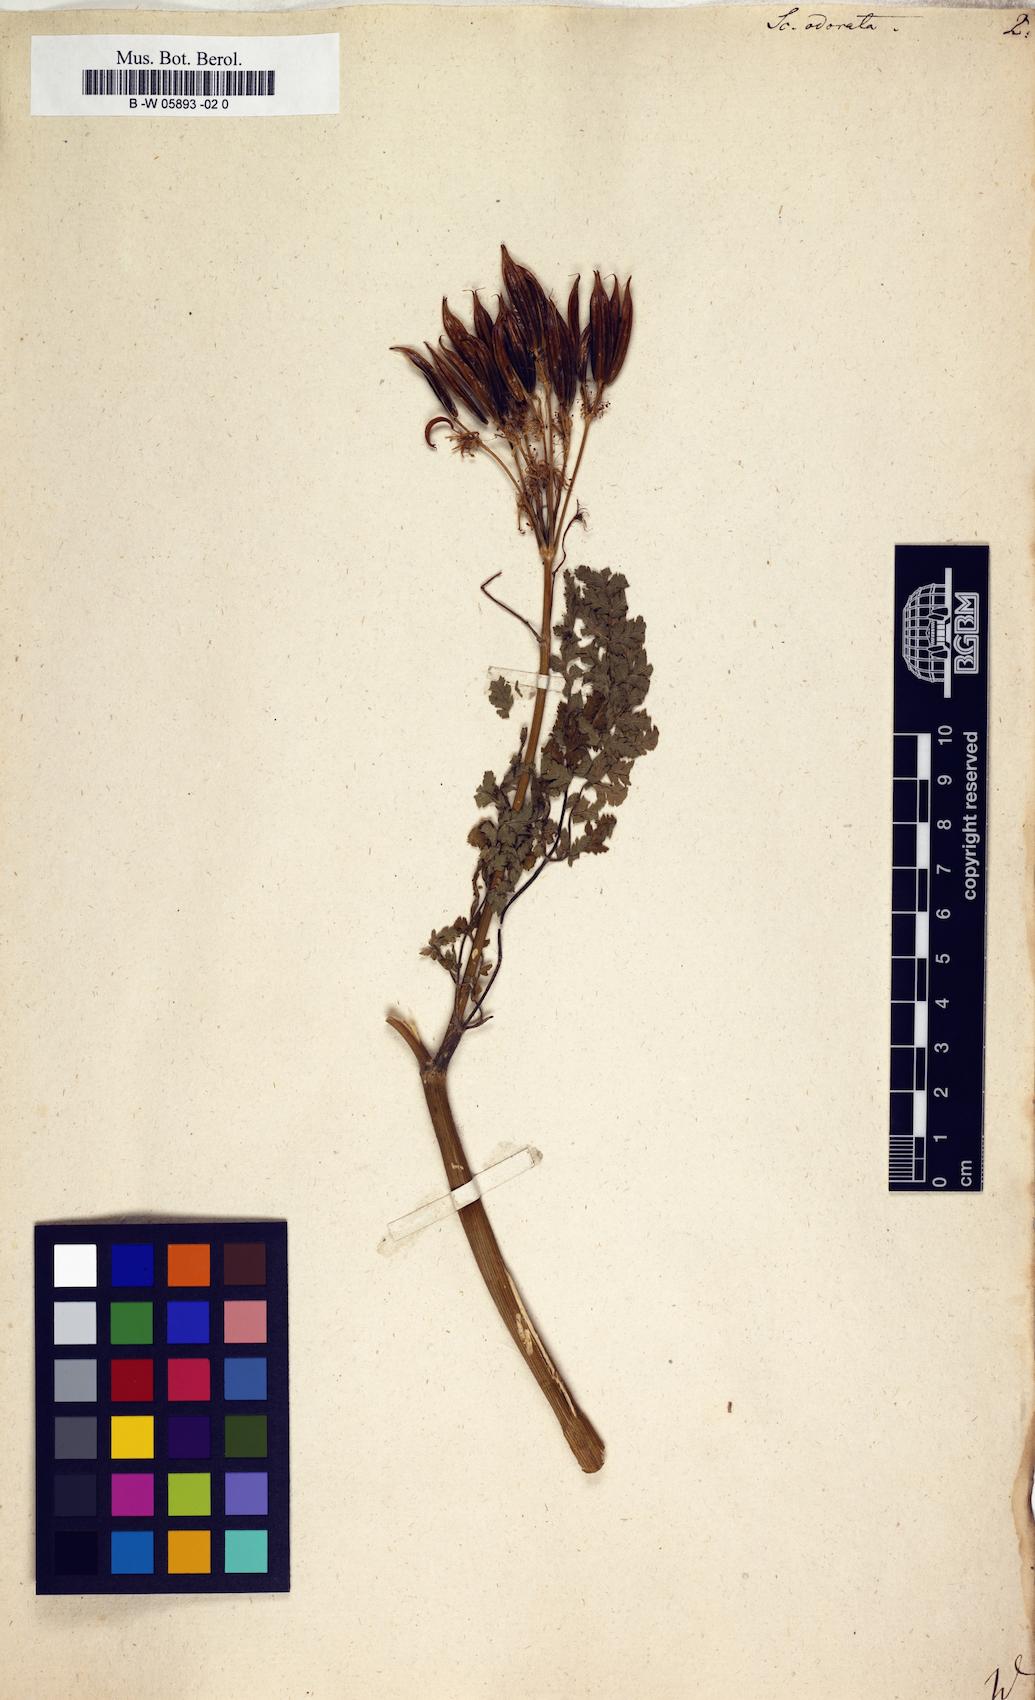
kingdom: Plantae
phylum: Tracheophyta
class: Magnoliopsida
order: Apiales
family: Apiaceae
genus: Myrrhis
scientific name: Myrrhis odorata
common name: Sweet cicely
